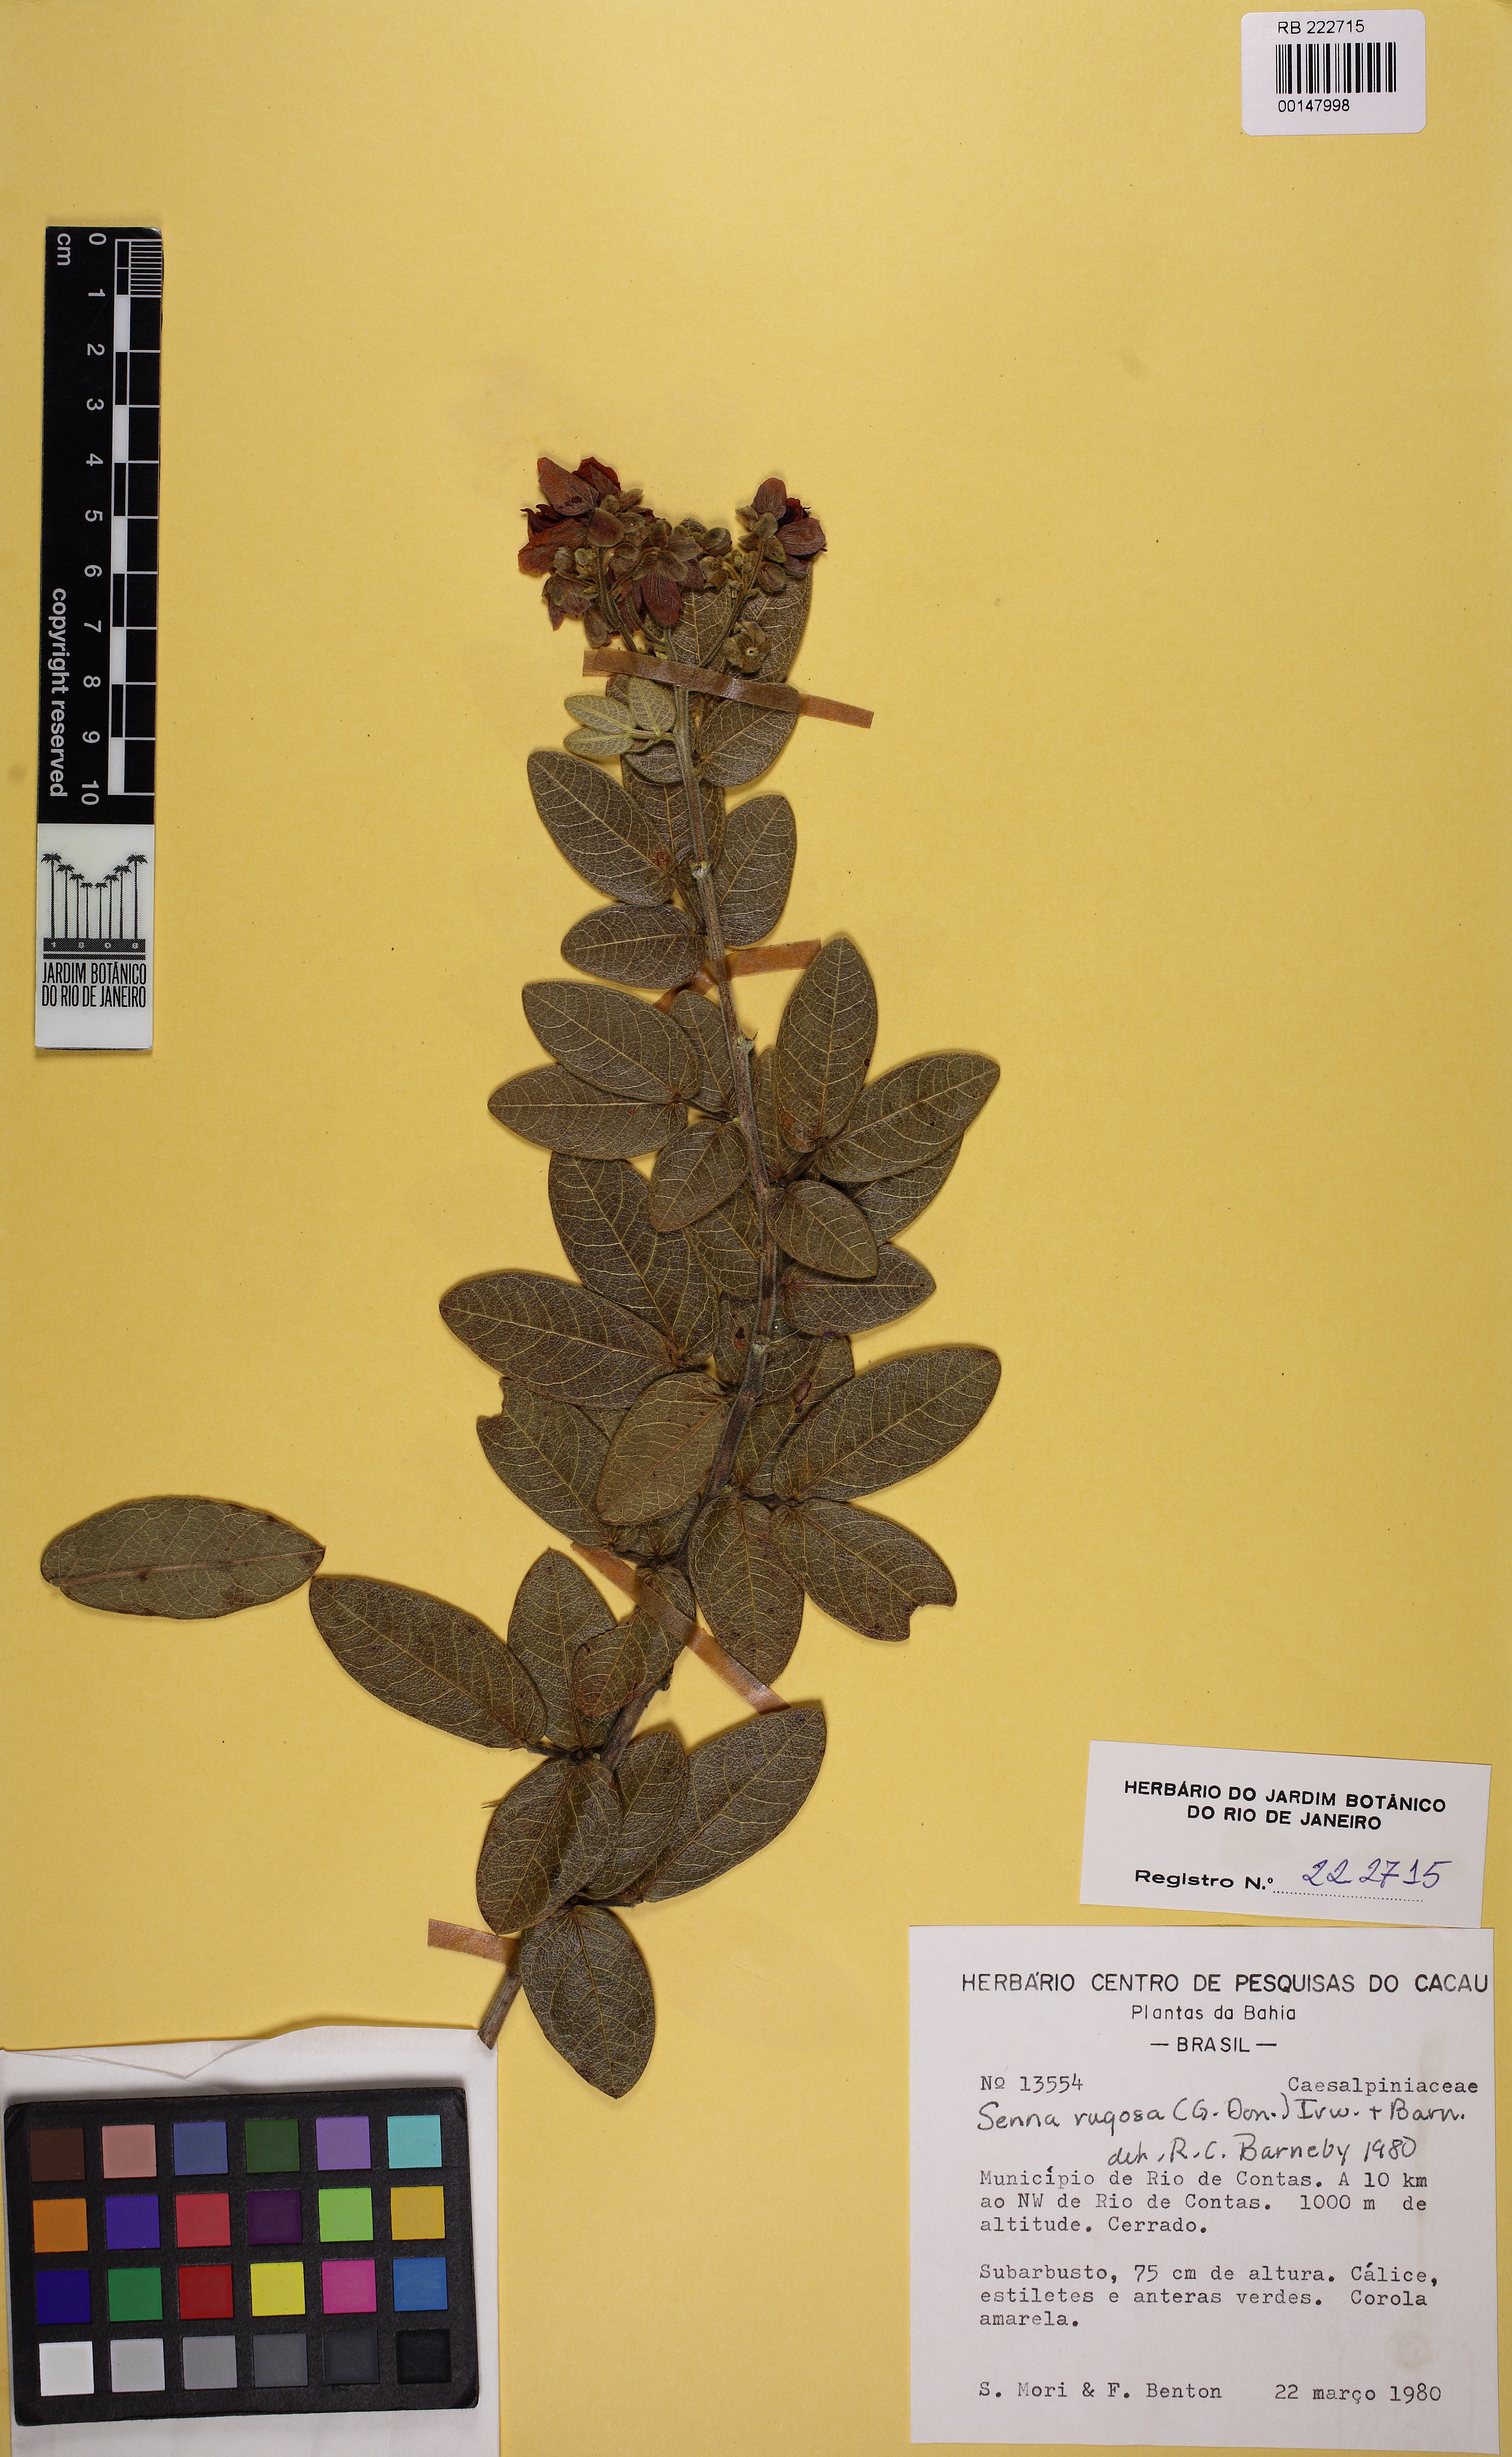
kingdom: Plantae
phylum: Tracheophyta
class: Magnoliopsida
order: Fabales
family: Fabaceae
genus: Senna
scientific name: Senna rugosa
